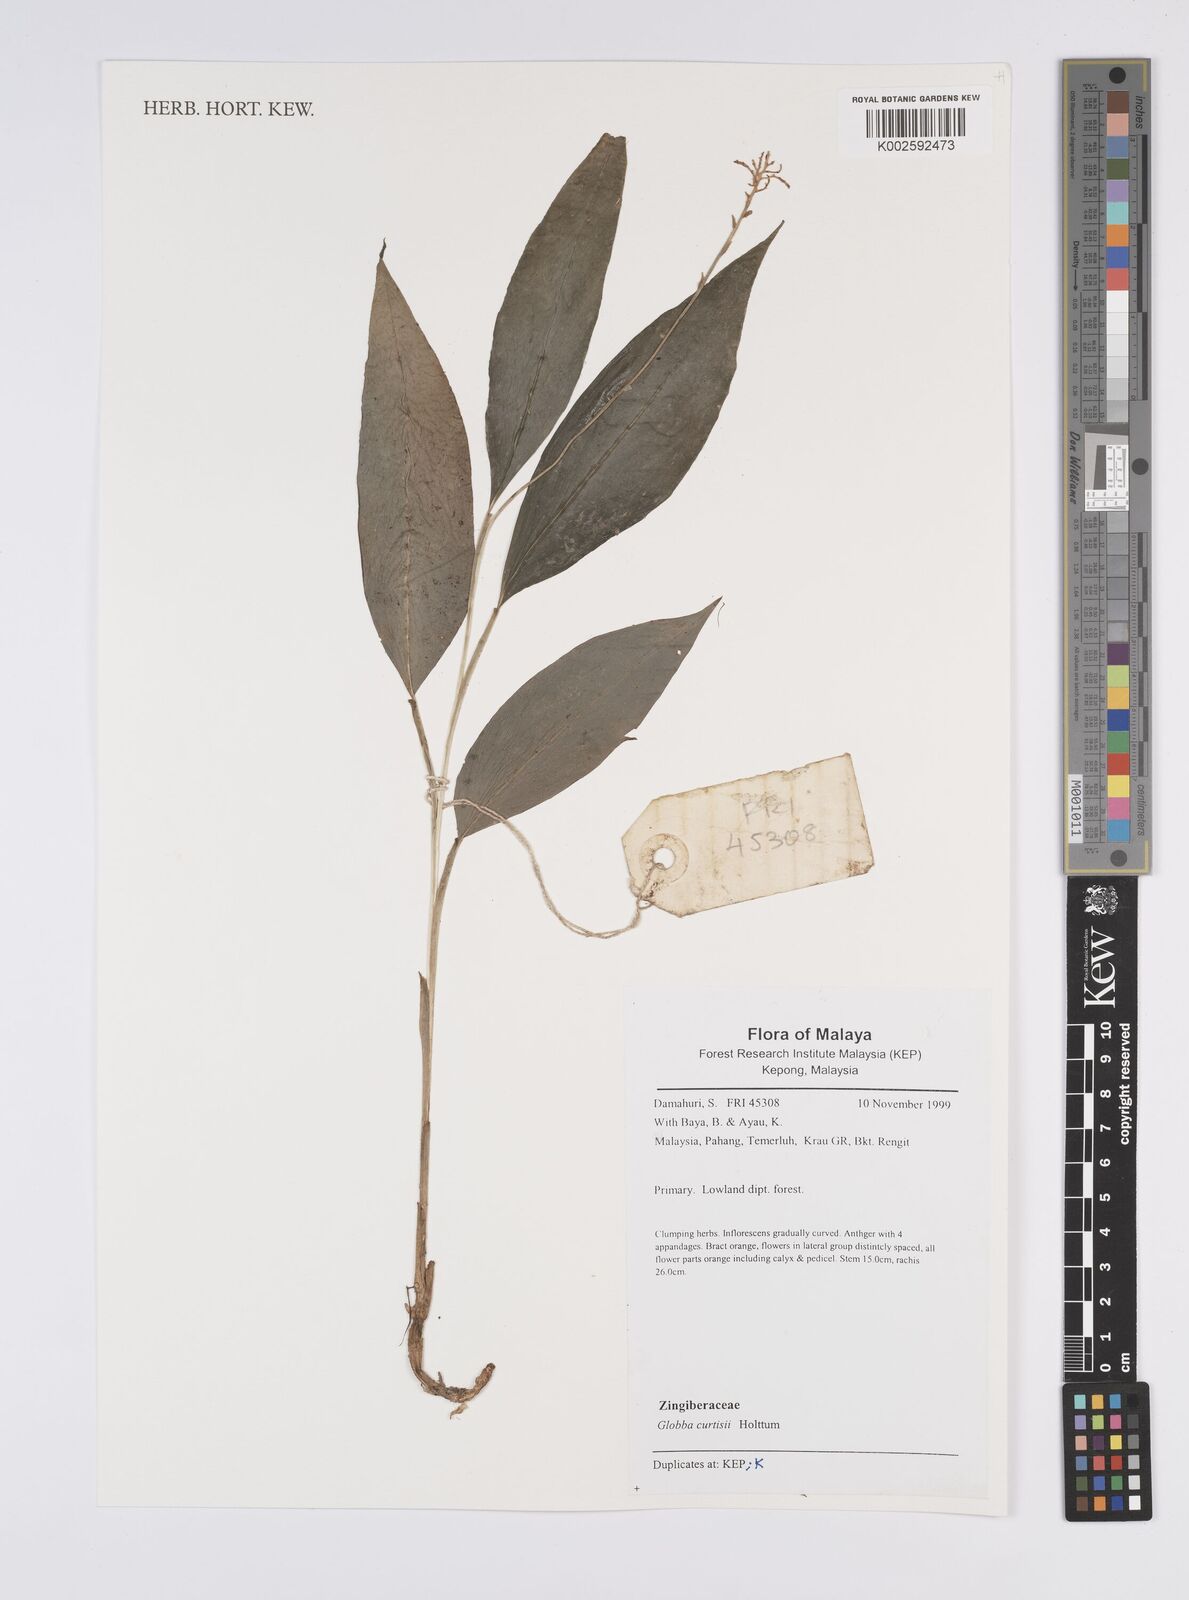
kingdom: Plantae
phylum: Tracheophyta
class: Liliopsida
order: Zingiberales
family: Zingiberaceae
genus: Globba
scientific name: Globba curtisii
